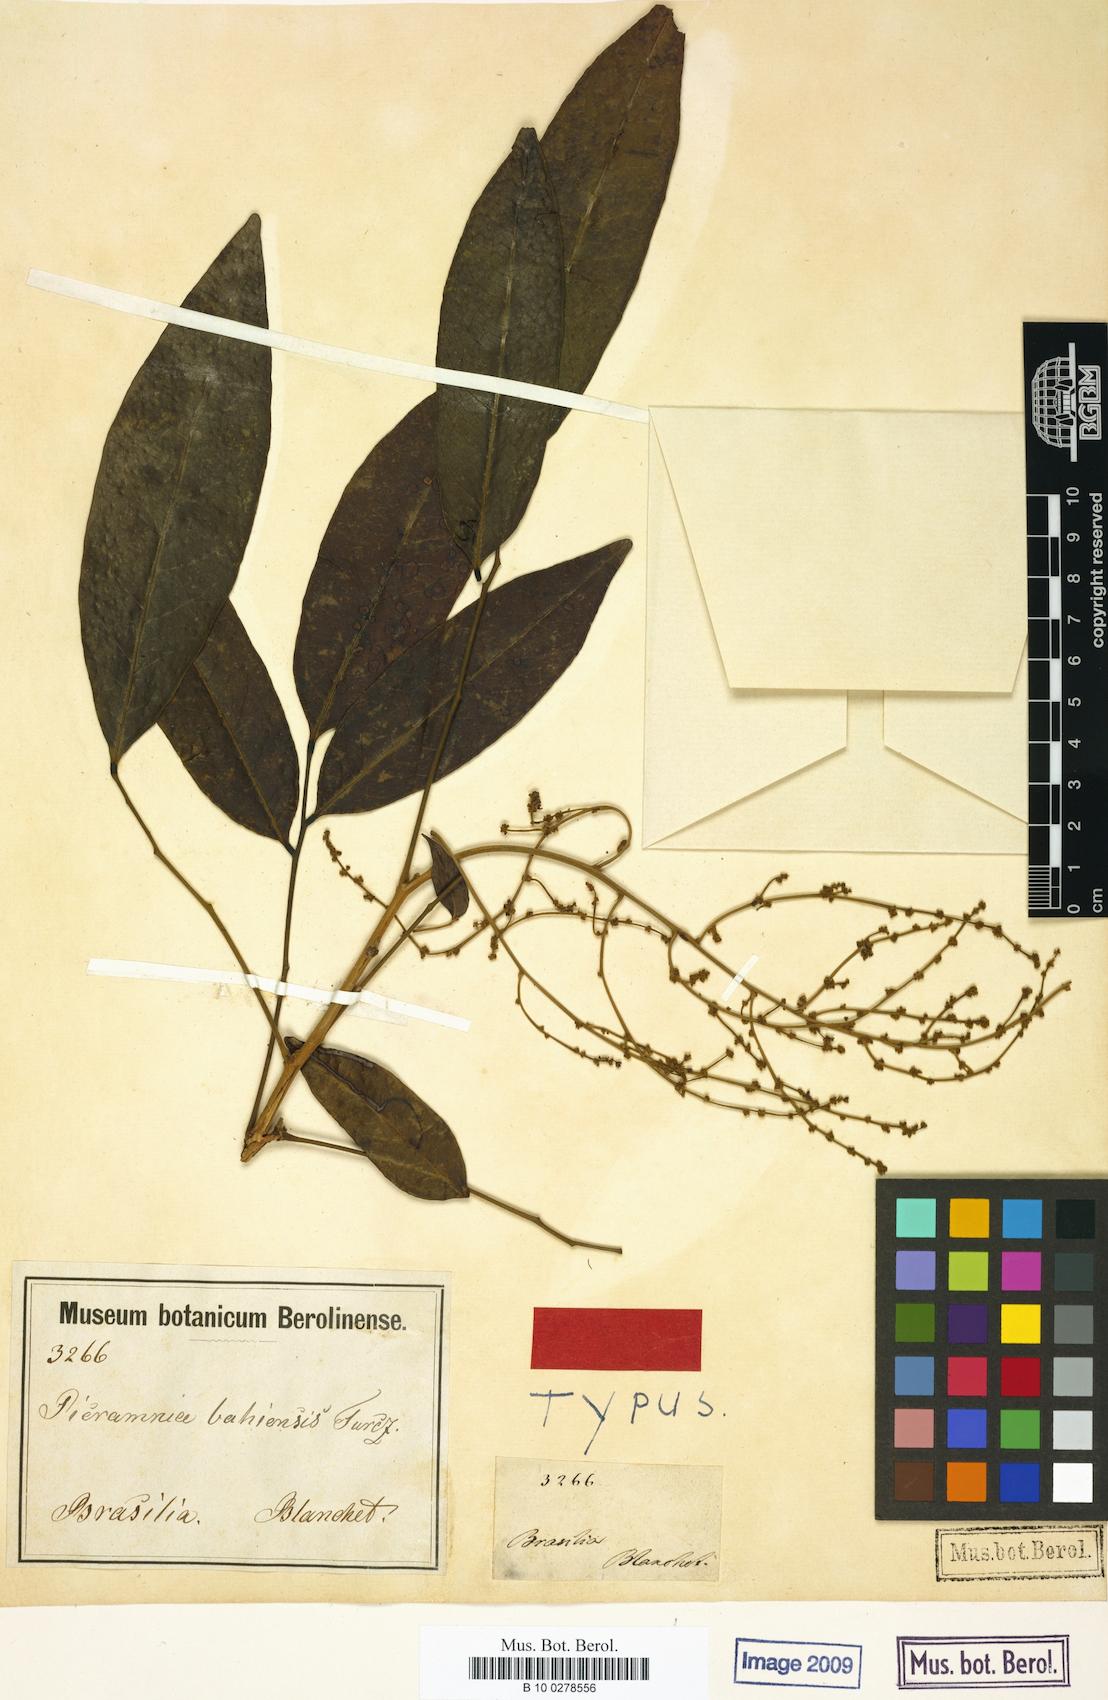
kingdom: Plantae
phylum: Tracheophyta
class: Magnoliopsida
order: Picramniales
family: Picramniaceae
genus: Picramnia
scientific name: Picramnia bahiensis
